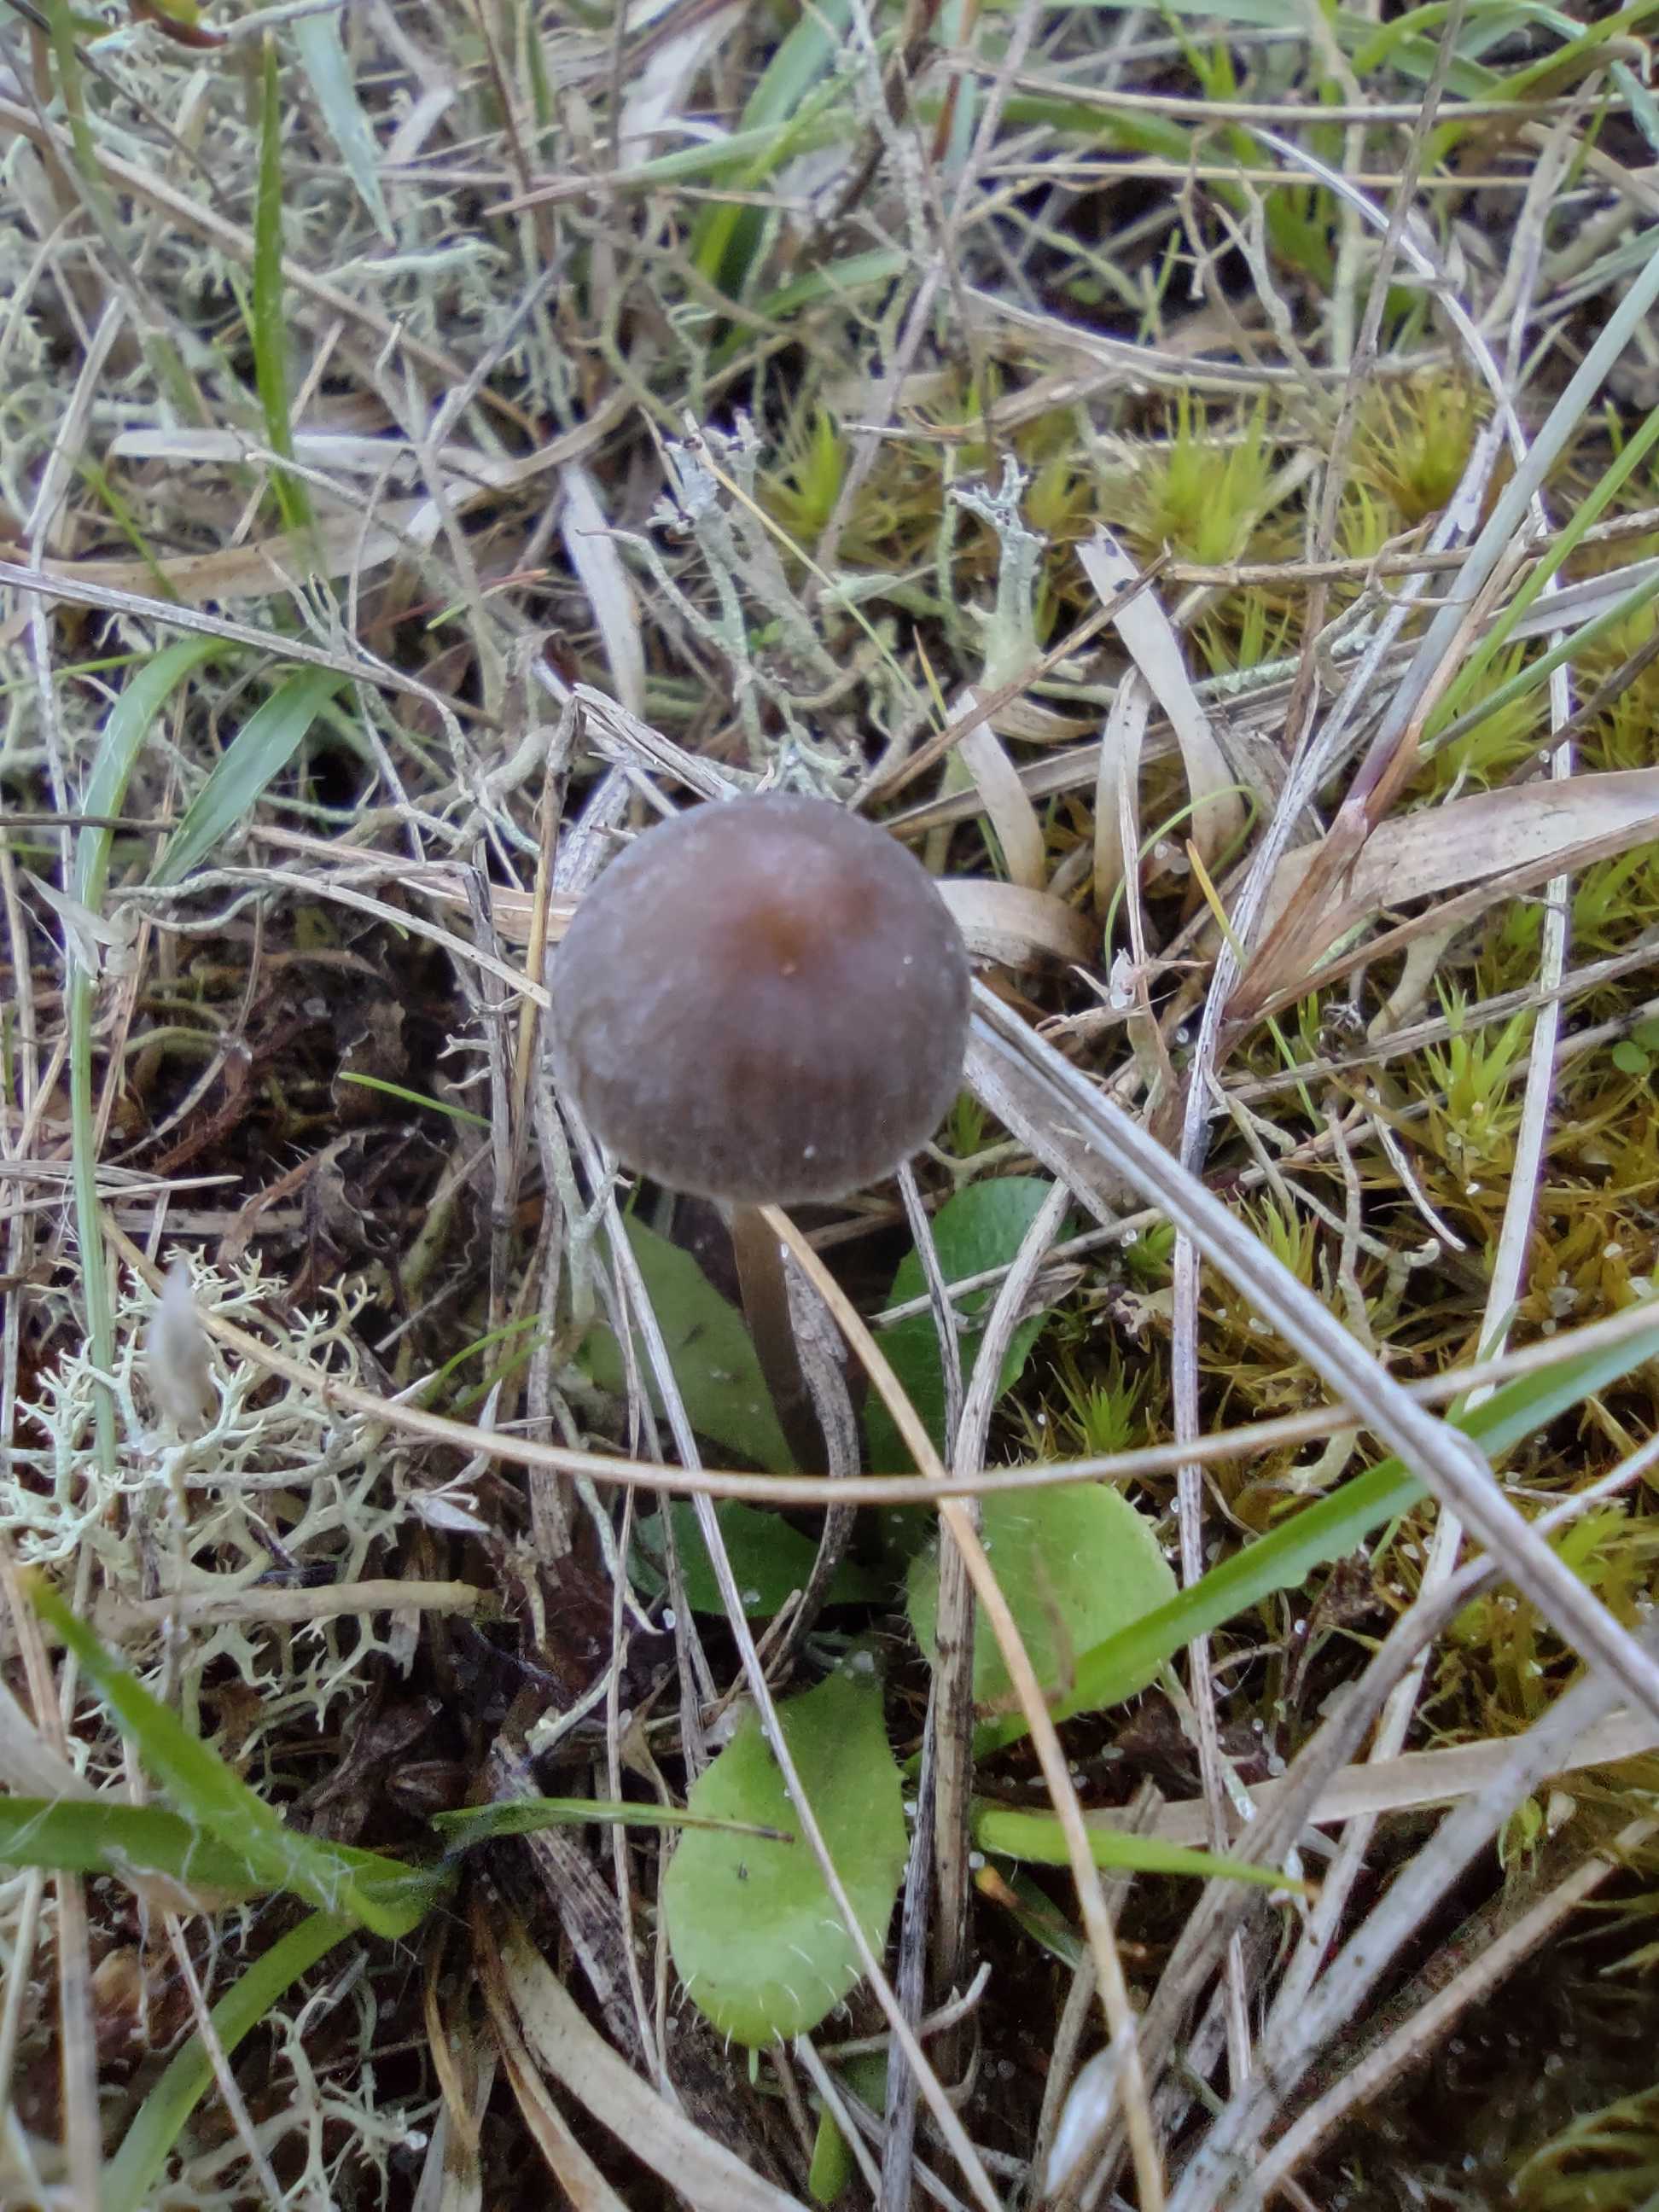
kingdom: Fungi
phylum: Basidiomycota
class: Agaricomycetes
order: Agaricales
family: Mycenaceae
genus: Mycena
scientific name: Mycena
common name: huesvamp
